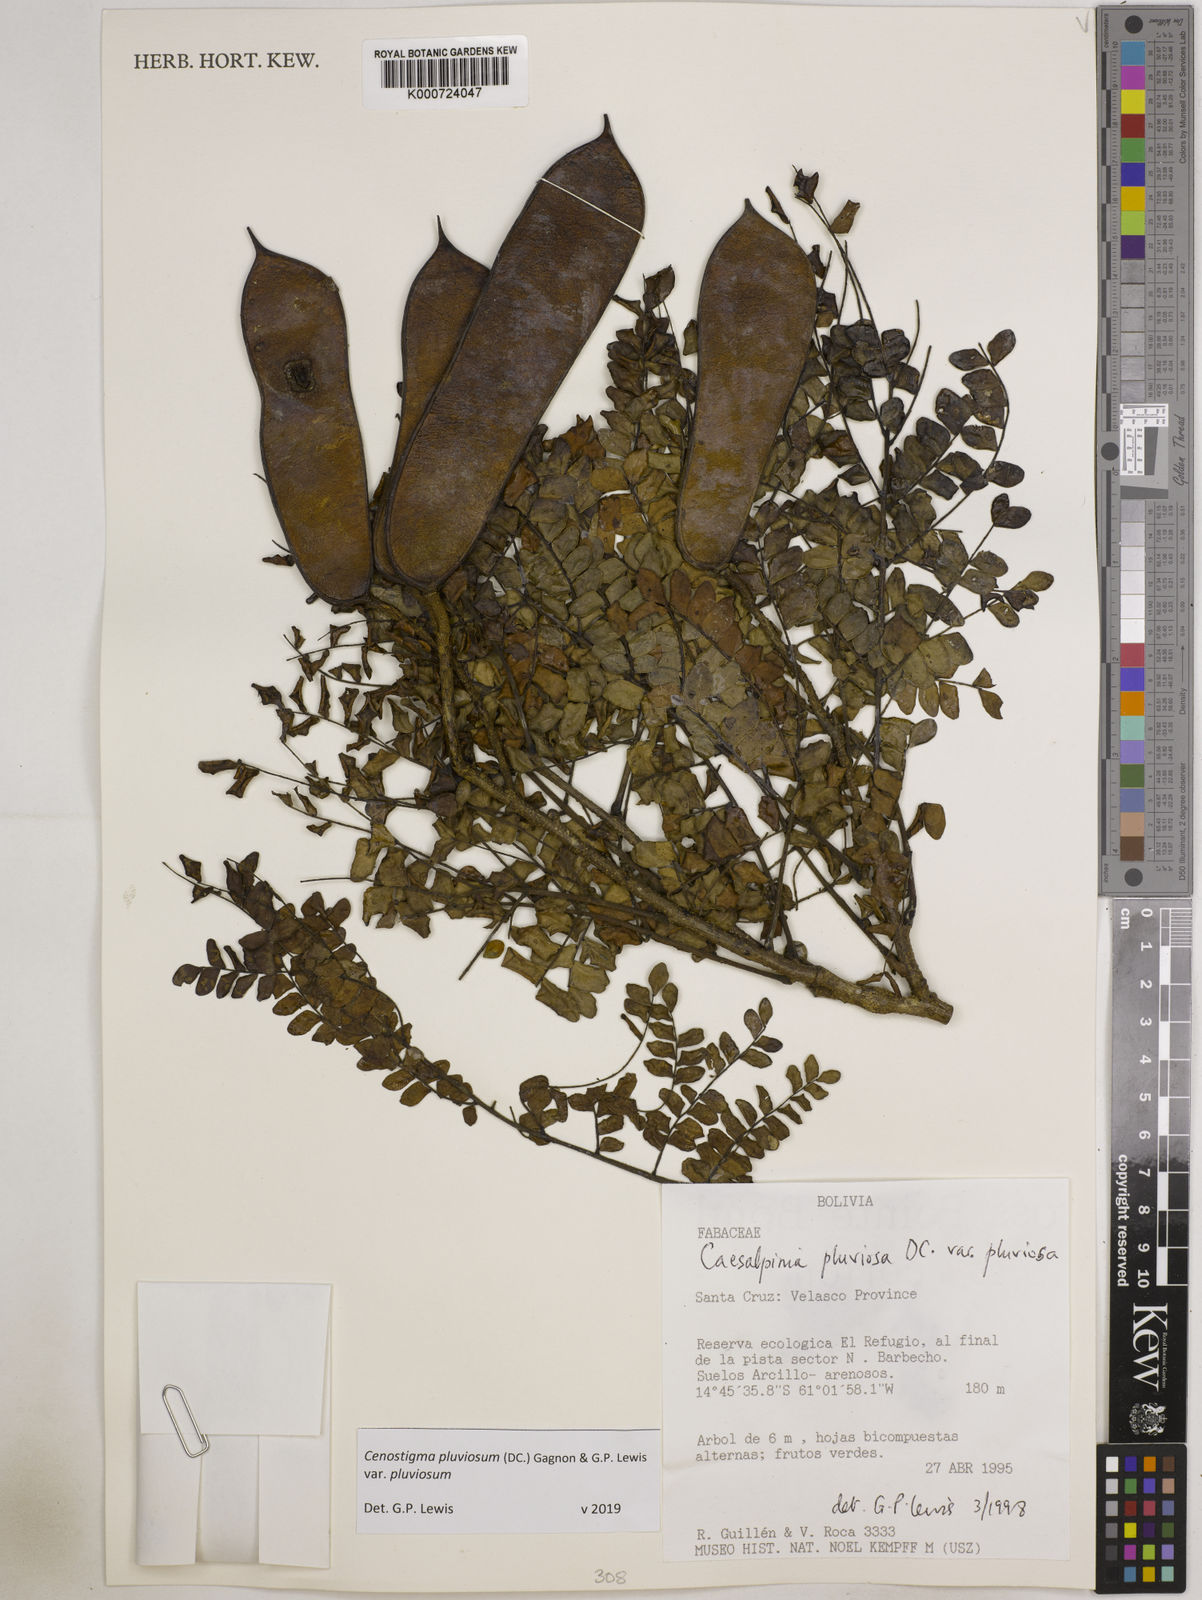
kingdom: Plantae
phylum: Tracheophyta
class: Magnoliopsida
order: Fabales
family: Fabaceae
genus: Cenostigma
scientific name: Cenostigma pluviosum
